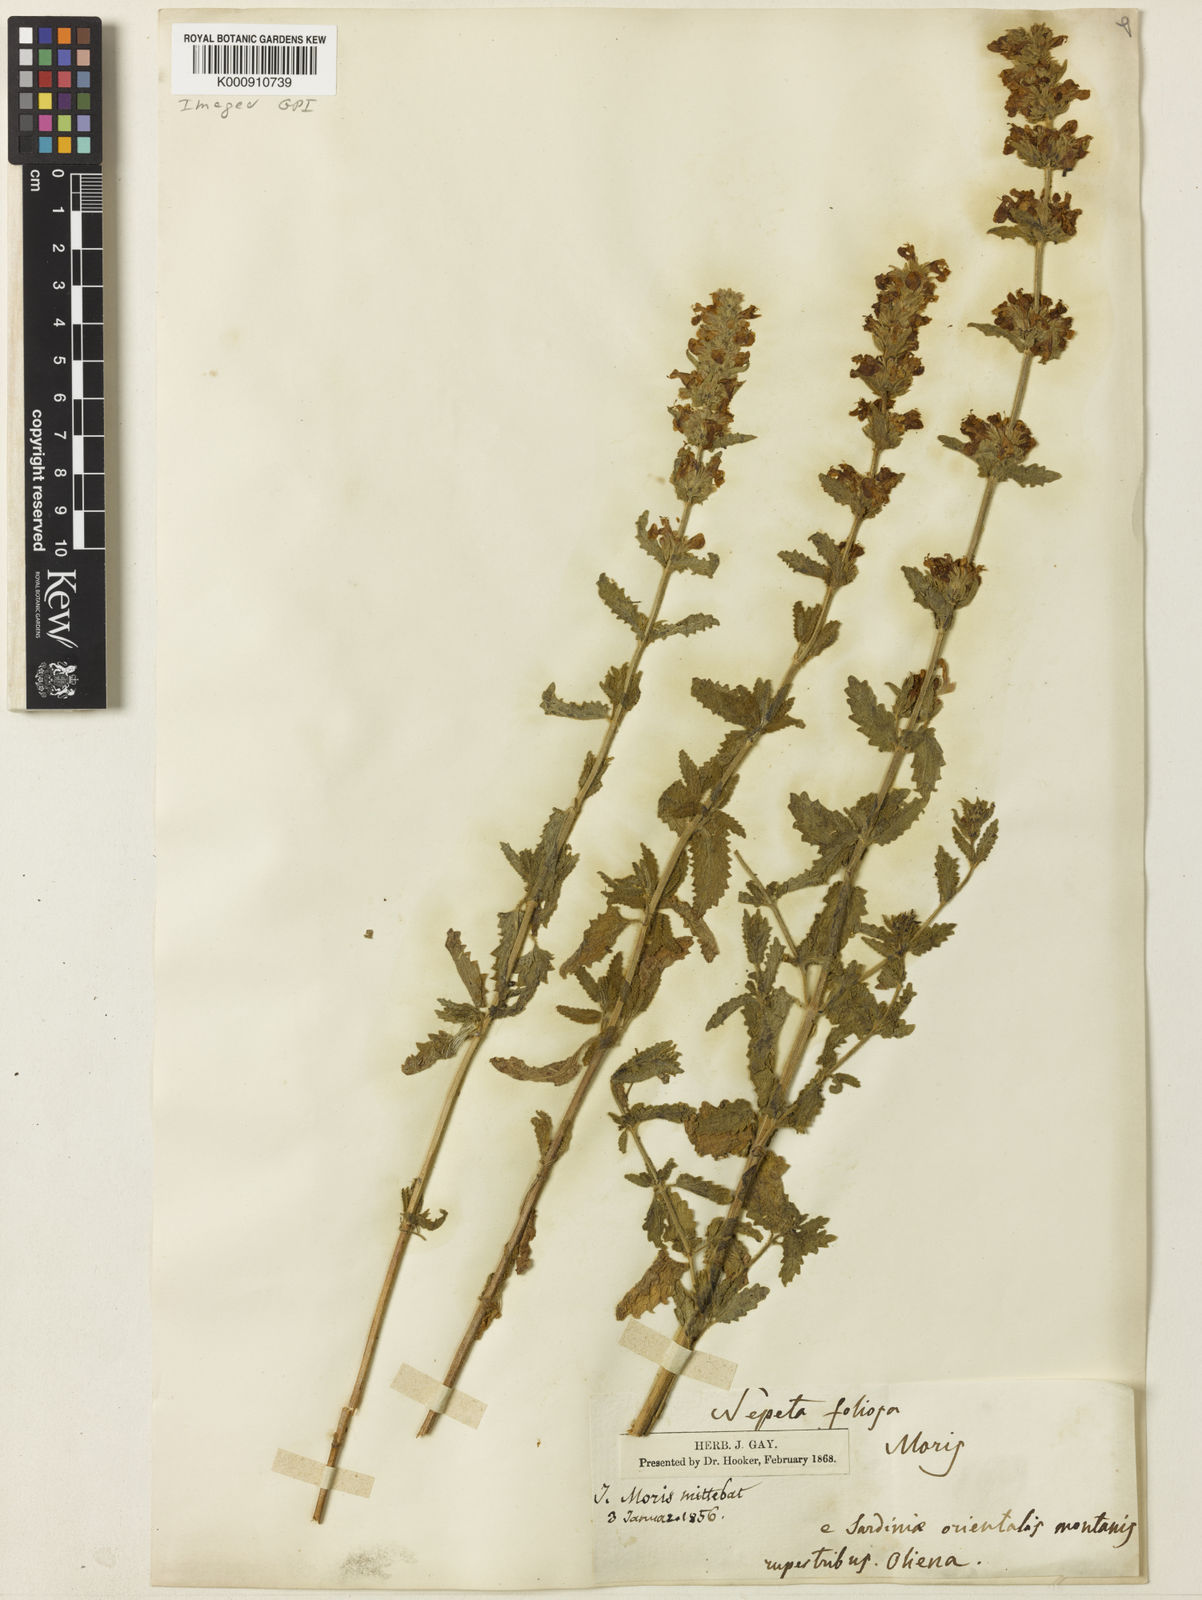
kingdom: Plantae
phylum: Tracheophyta
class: Magnoliopsida
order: Lamiales
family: Lamiaceae
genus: Nepeta
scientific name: Nepeta foliosa
